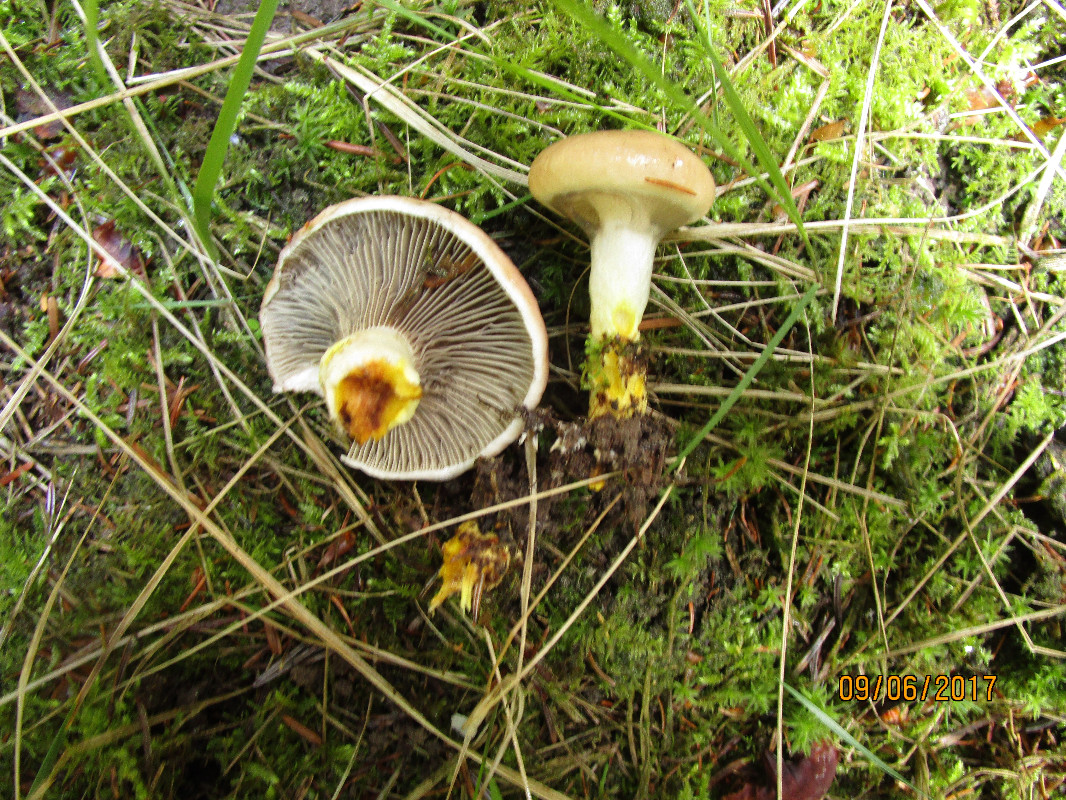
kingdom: Fungi
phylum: Basidiomycota
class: Agaricomycetes
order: Boletales
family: Gomphidiaceae
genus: Gomphidius
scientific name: Gomphidius glutinosus
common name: grå slimslør
